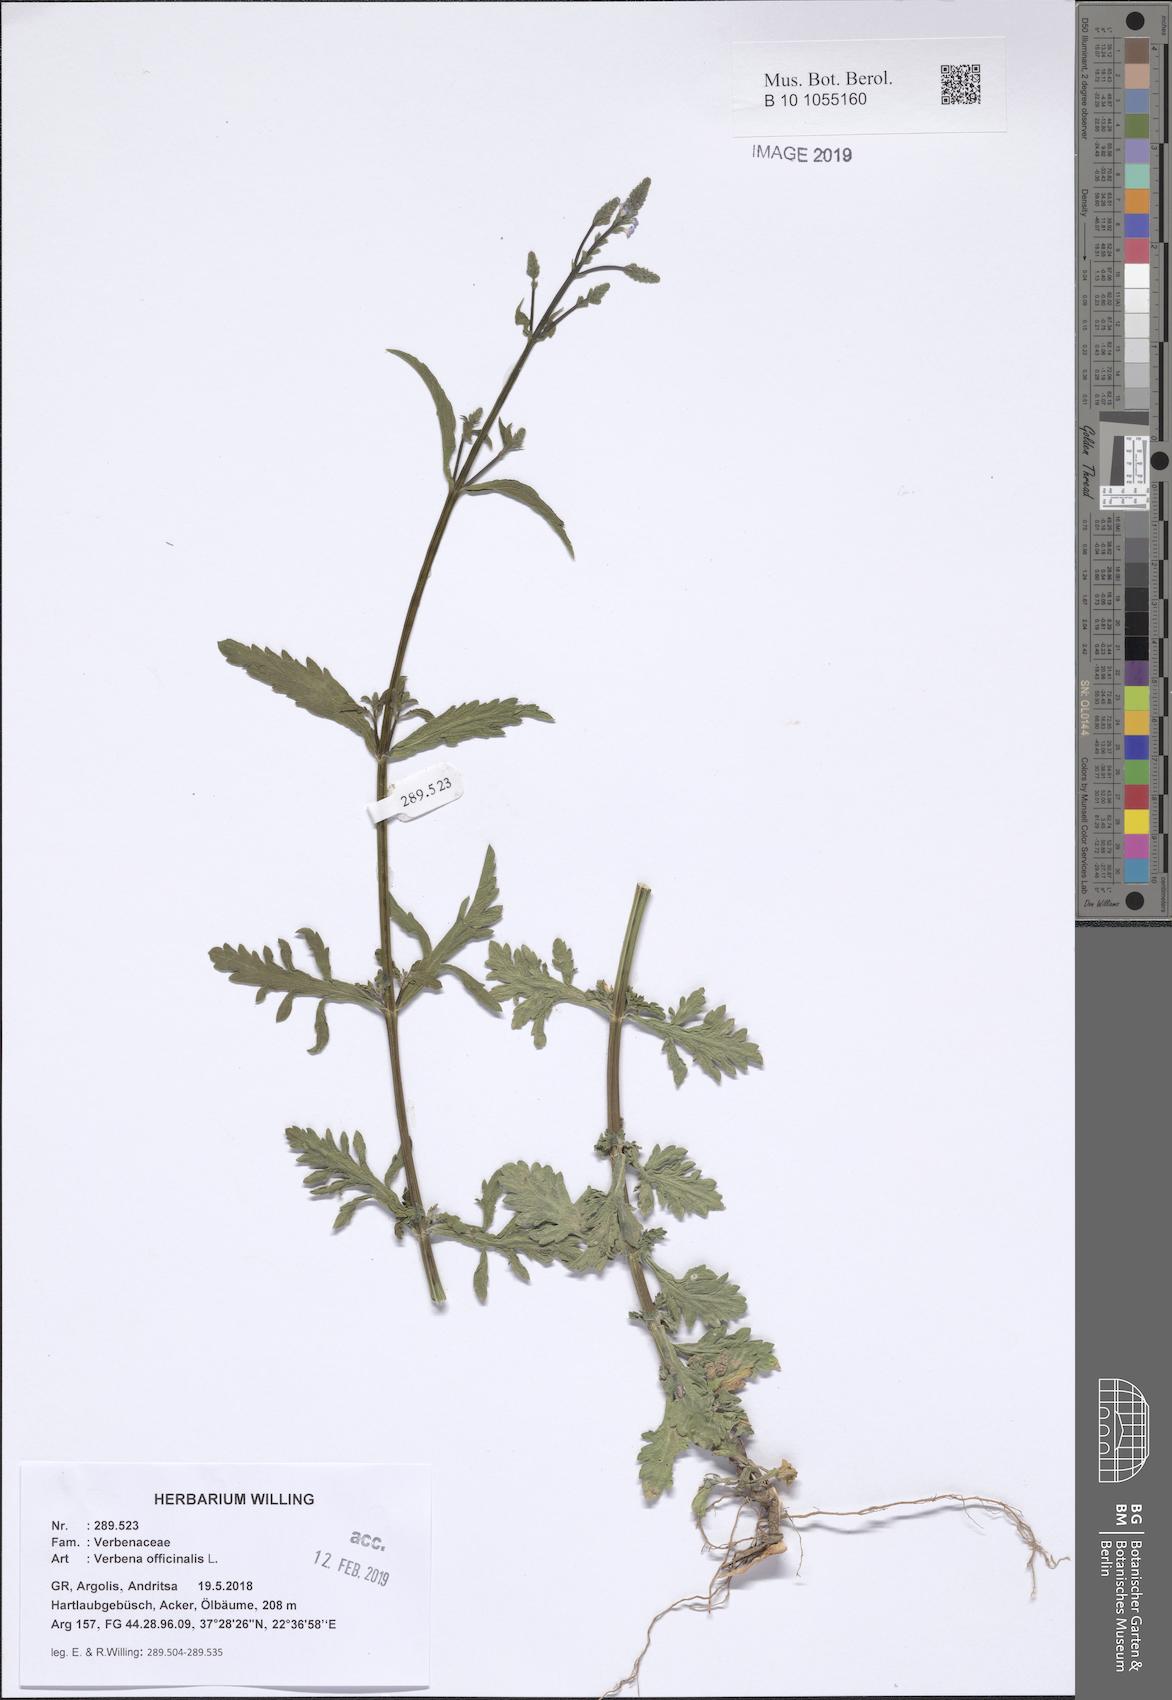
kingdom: Plantae
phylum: Tracheophyta
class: Magnoliopsida
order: Lamiales
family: Verbenaceae
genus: Verbena
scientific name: Verbena officinalis
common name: Vervain
